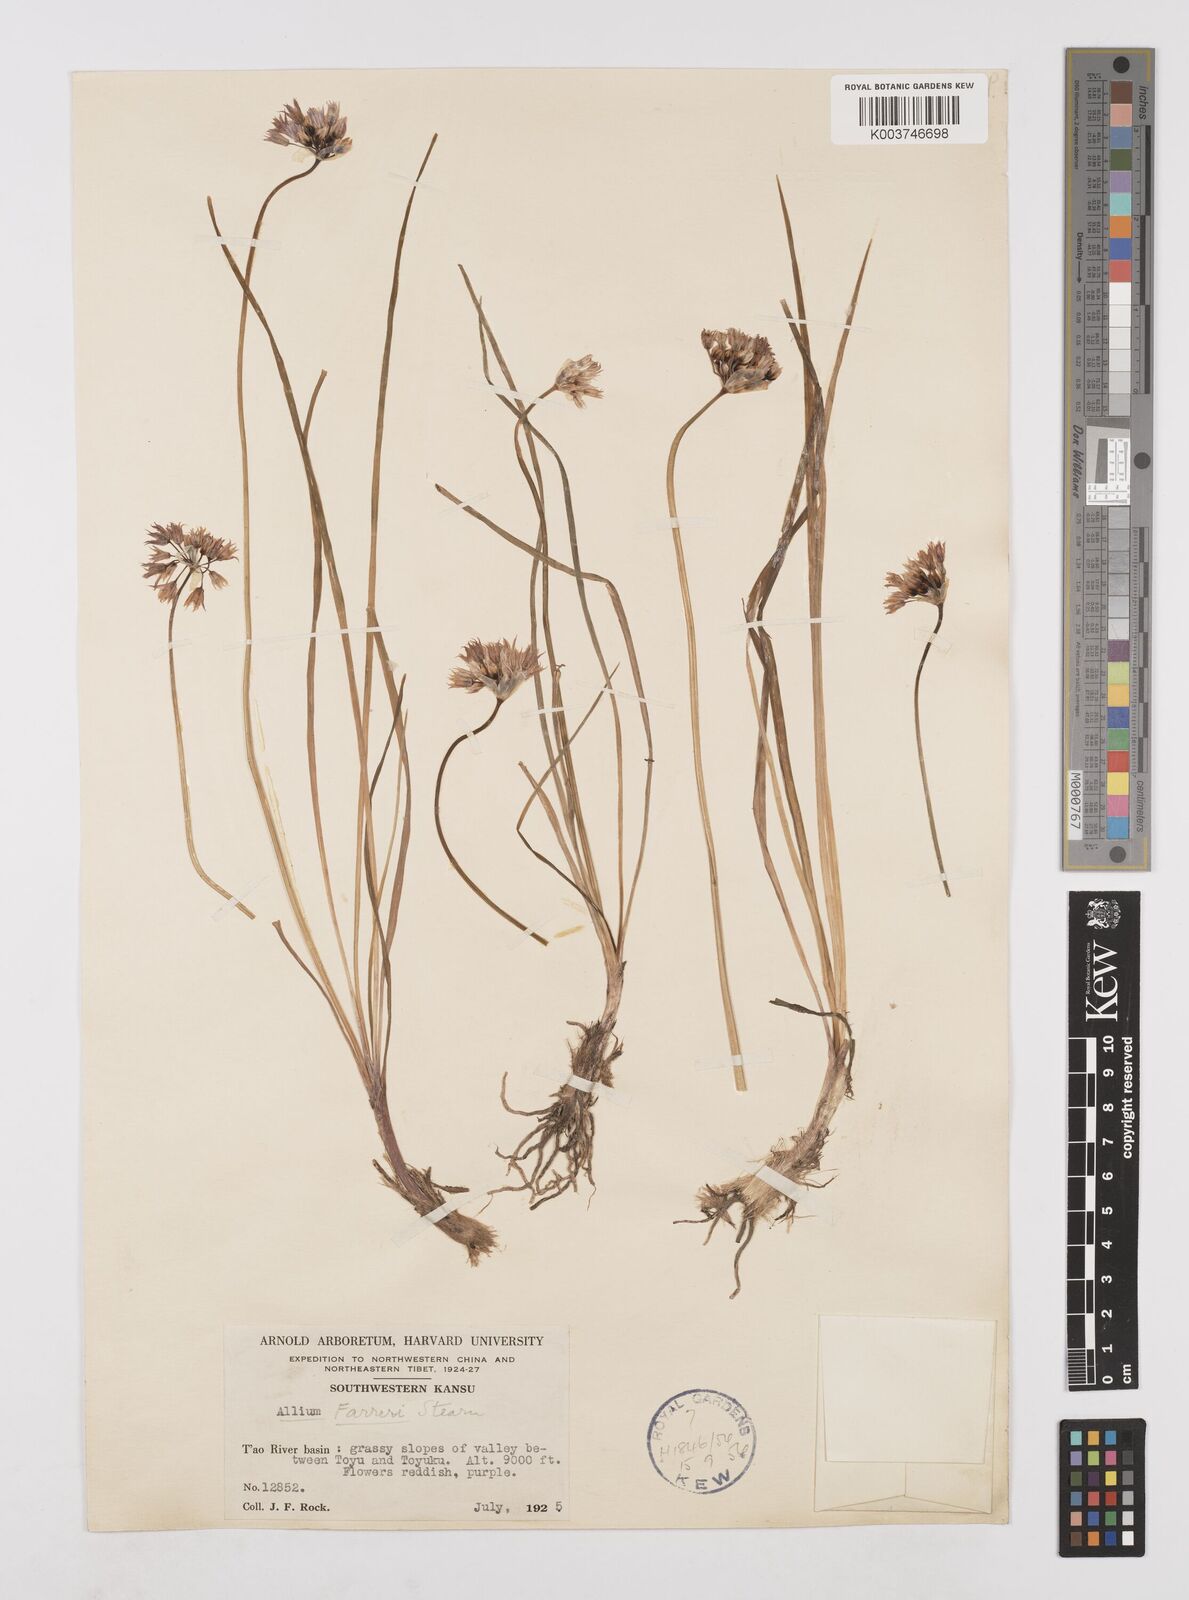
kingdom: Plantae
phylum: Tracheophyta
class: Liliopsida
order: Asparagales
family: Amaryllidaceae
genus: Allium
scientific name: Allium farreri
